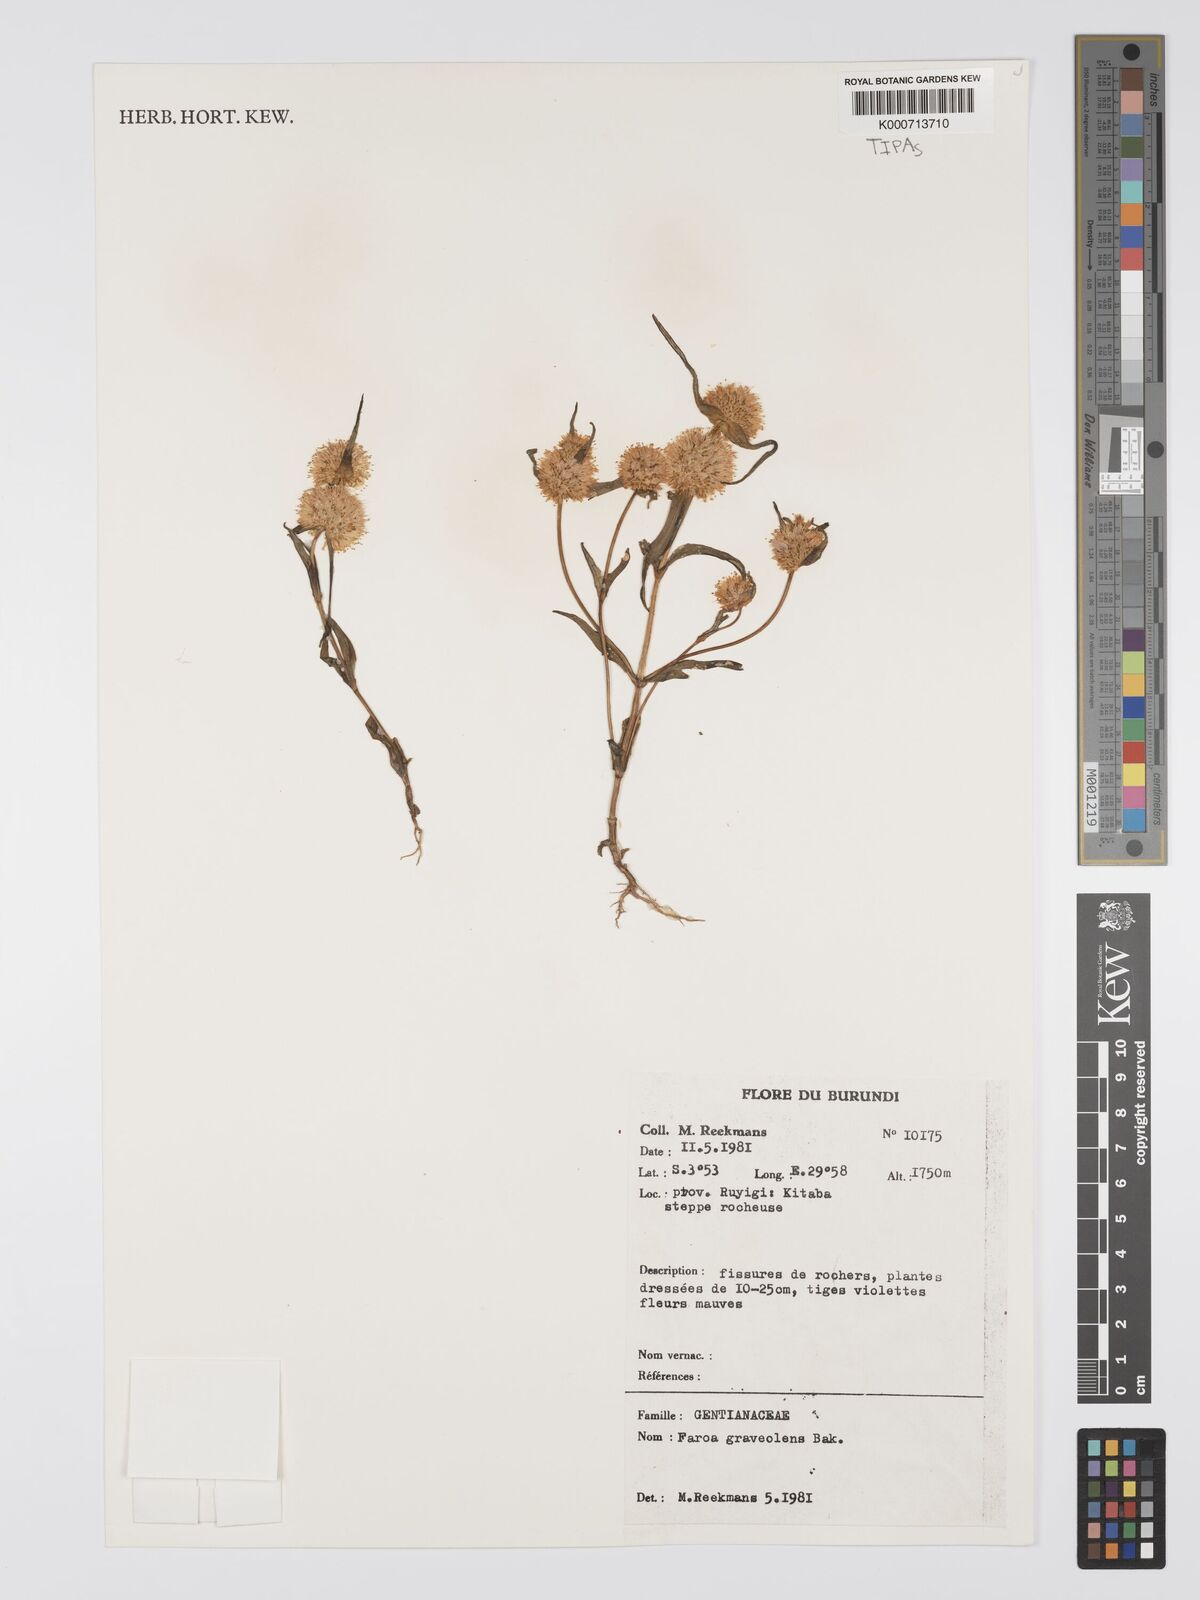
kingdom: Plantae
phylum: Tracheophyta
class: Magnoliopsida
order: Gentianales
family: Gentianaceae
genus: Faroa
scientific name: Faroa graveolens
